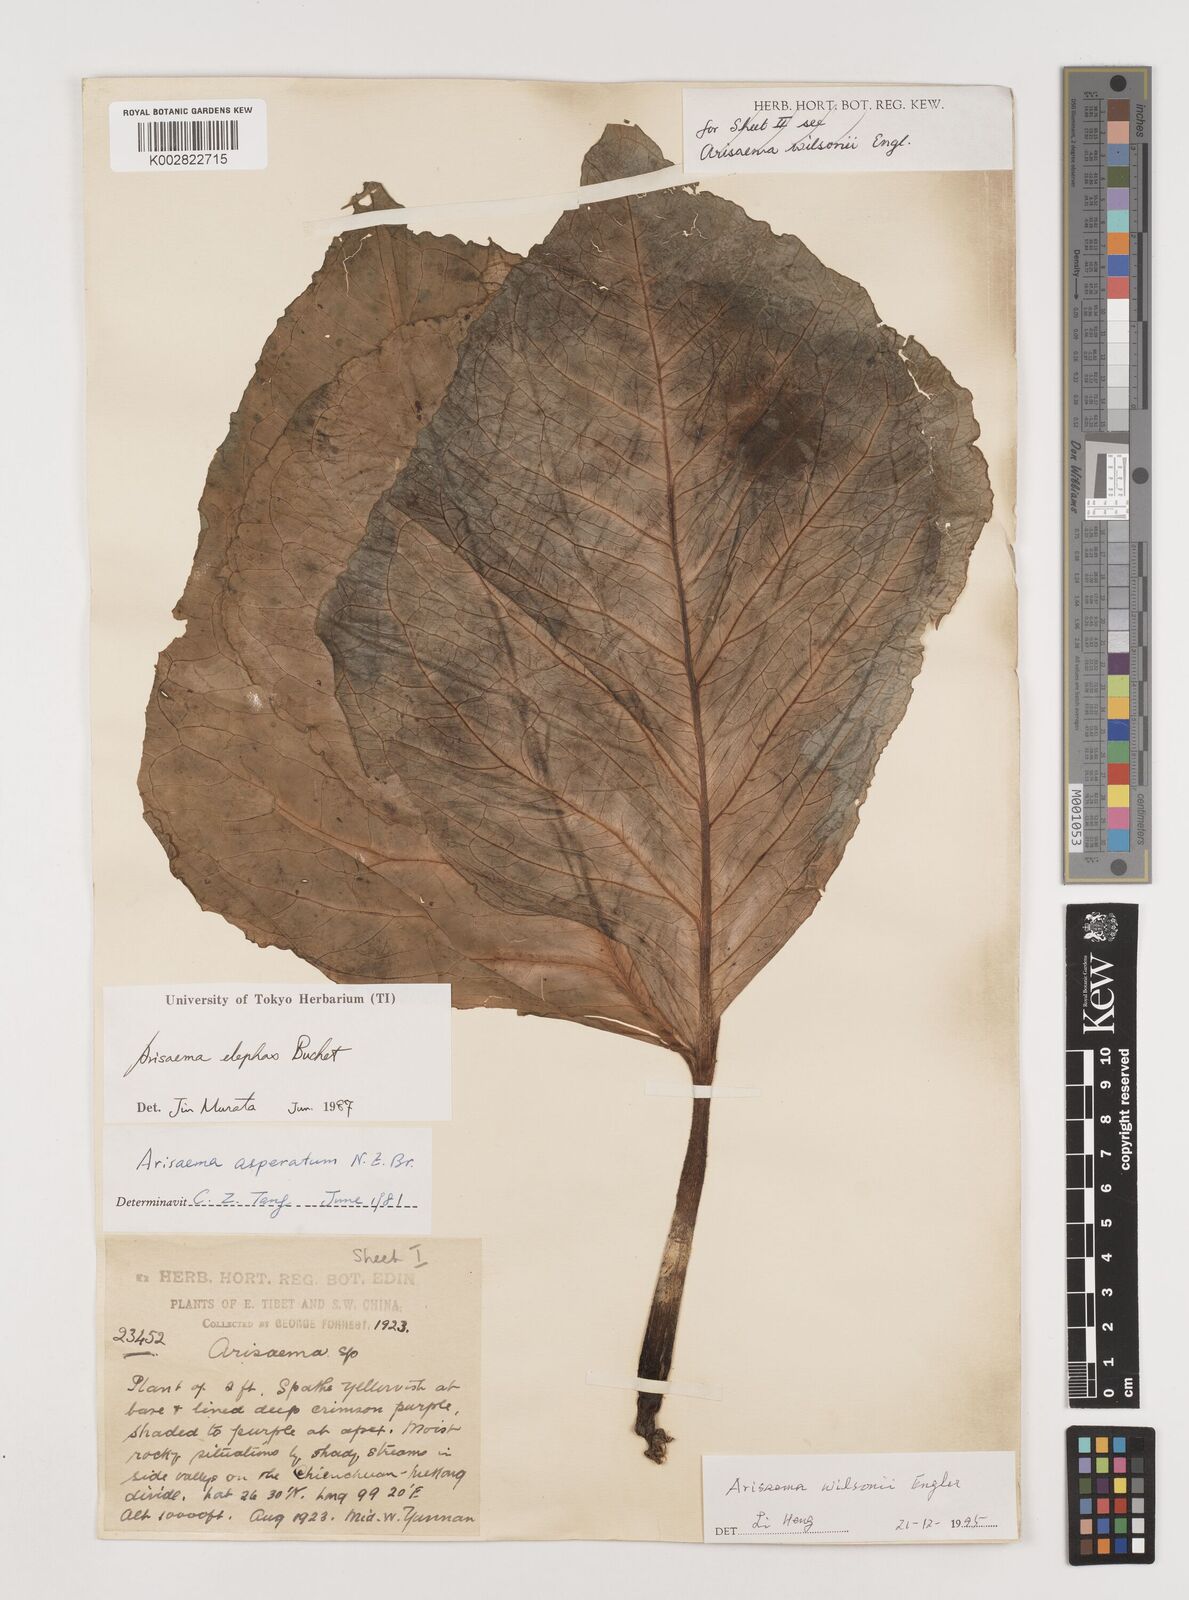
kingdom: Plantae
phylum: Tracheophyta
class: Liliopsida
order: Alismatales
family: Araceae
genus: Arisaema
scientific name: Arisaema wilsonii
